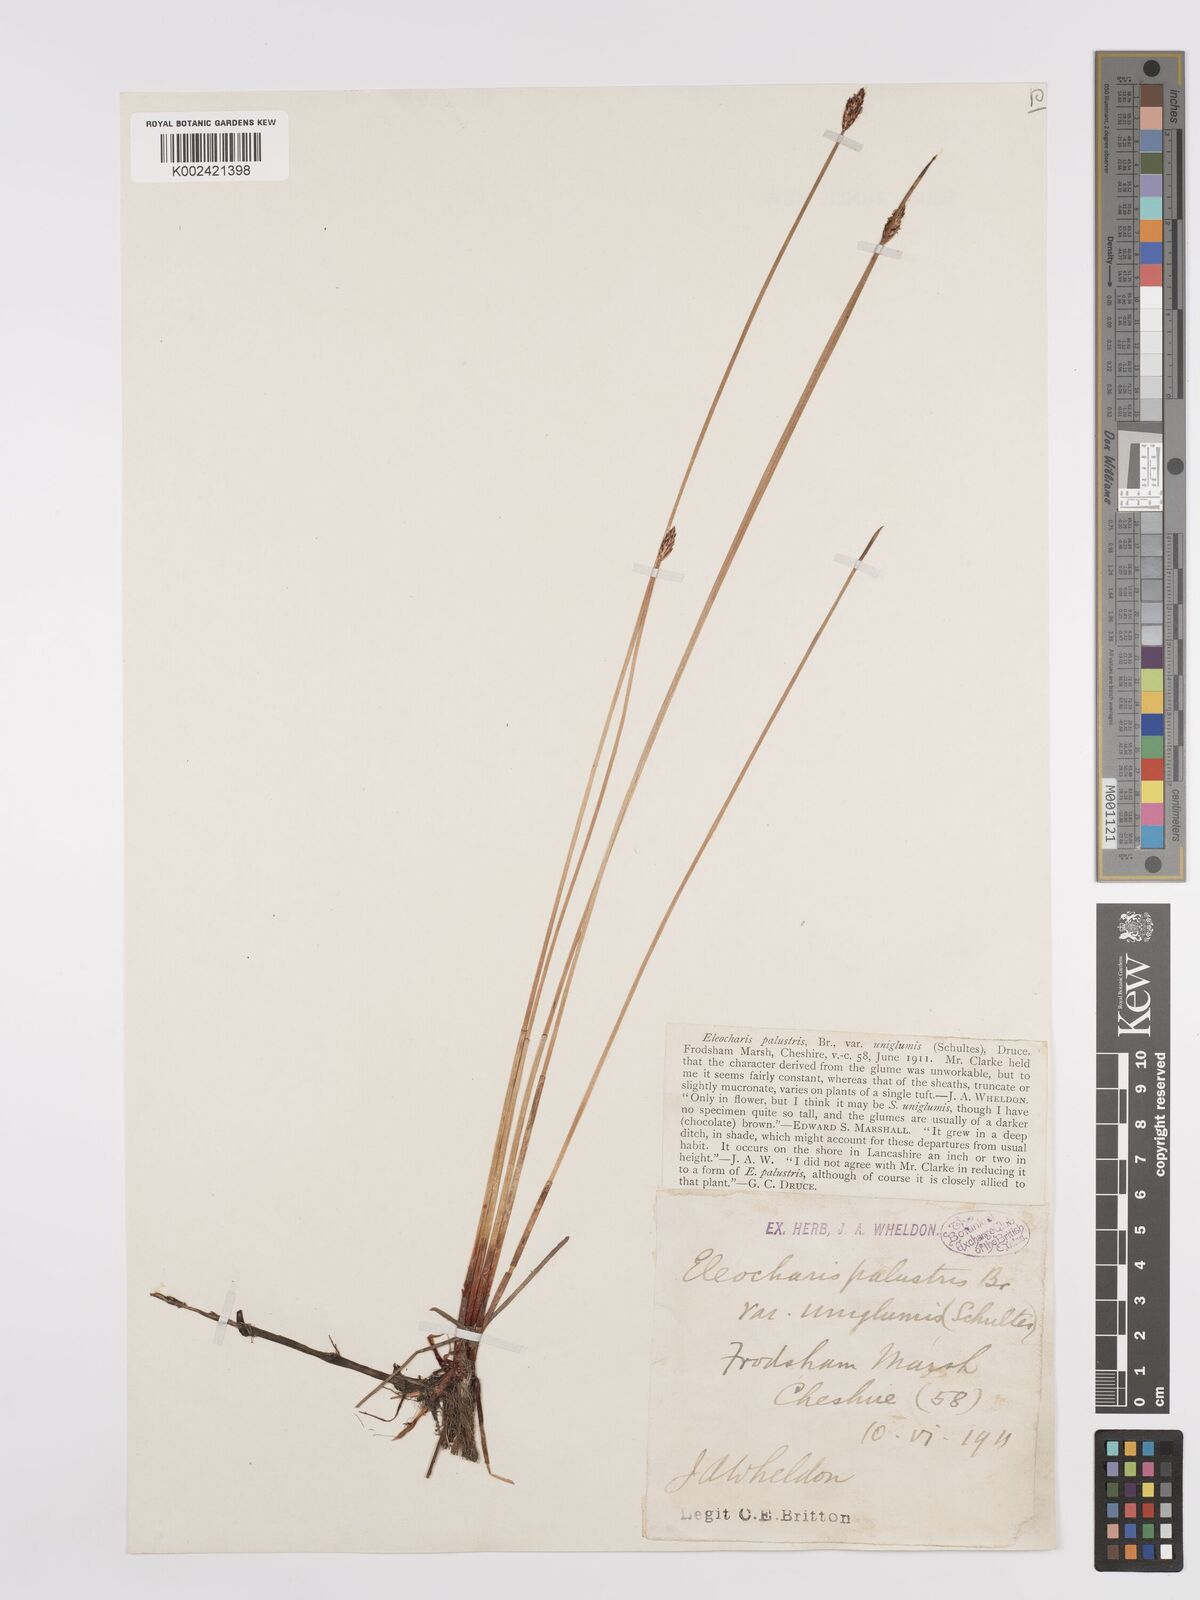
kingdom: Plantae
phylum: Tracheophyta
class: Liliopsida
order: Poales
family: Cyperaceae
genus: Eleocharis
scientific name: Eleocharis uniglumis
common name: Slender spike-rush
